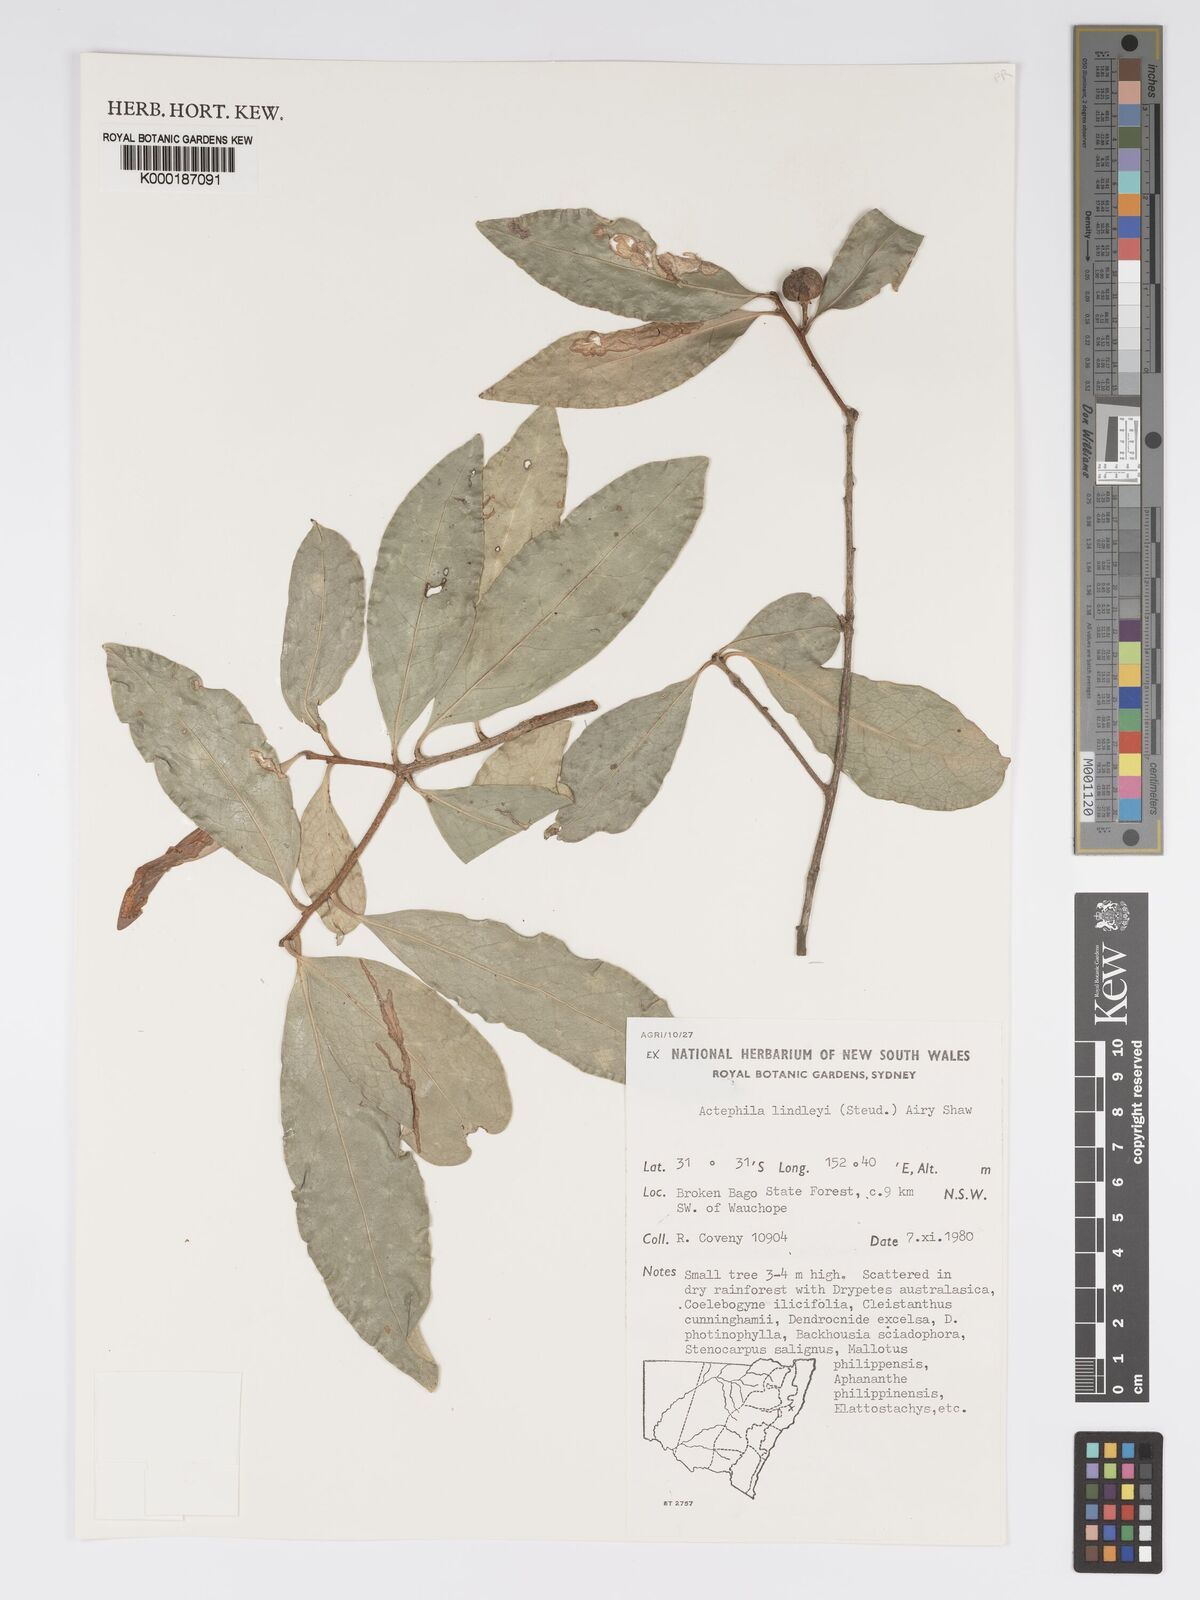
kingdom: Plantae
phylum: Tracheophyta
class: Magnoliopsida
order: Malpighiales
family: Phyllanthaceae
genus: Actephila
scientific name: Actephila lindleyi
